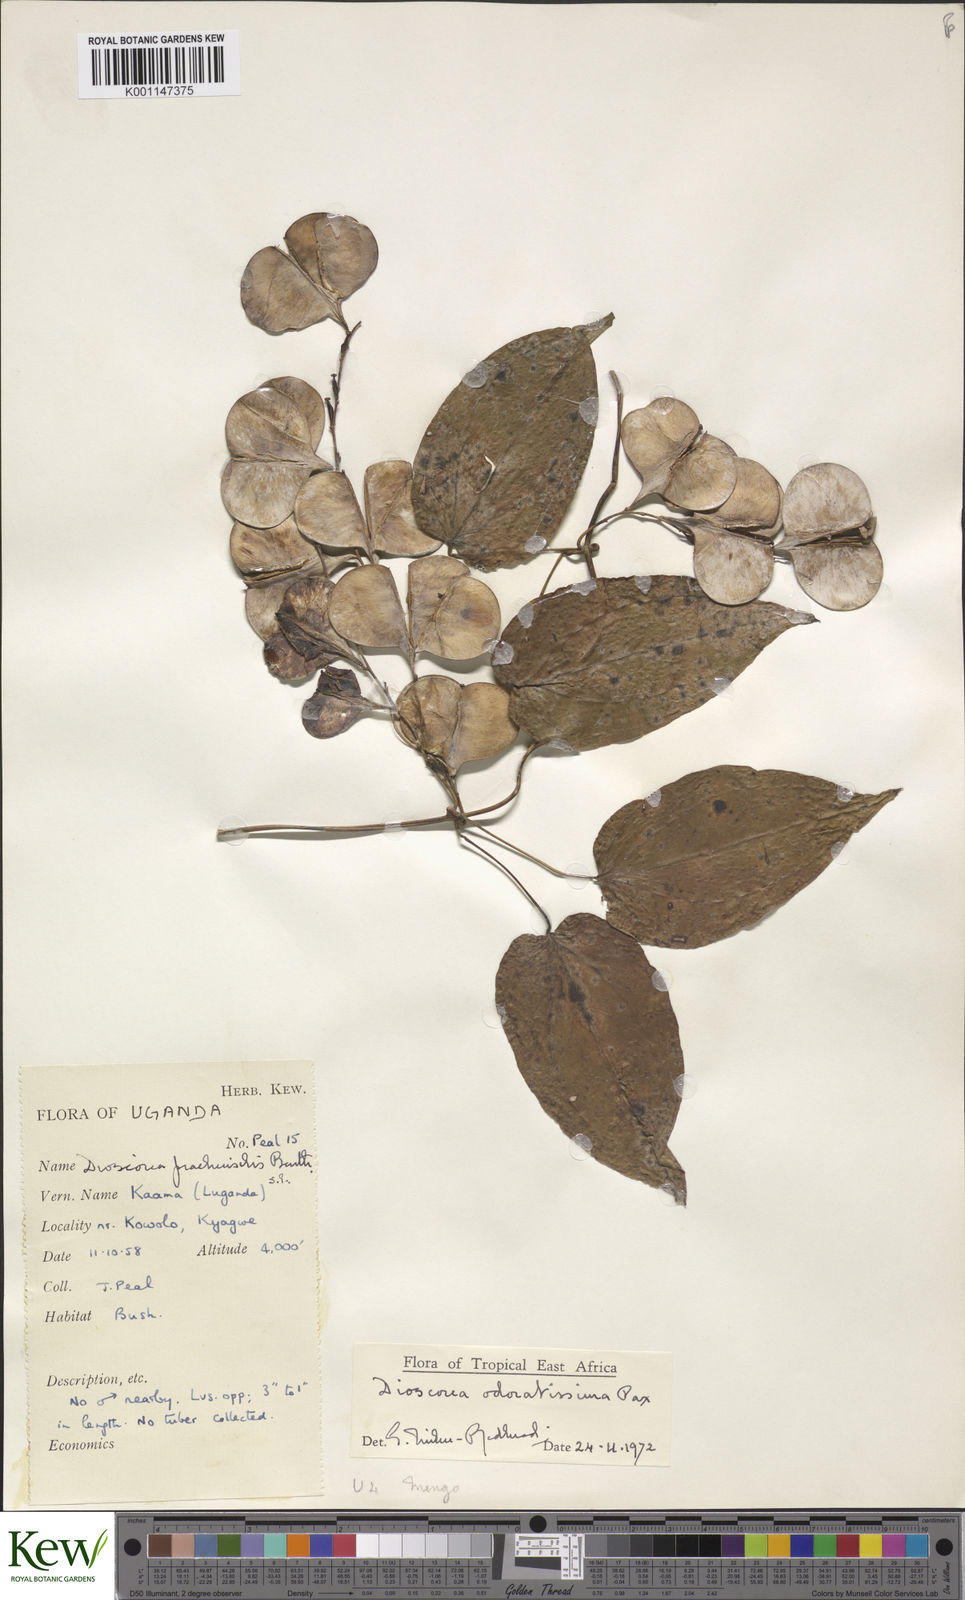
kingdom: Plantae
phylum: Tracheophyta
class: Liliopsida
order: Dioscoreales
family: Dioscoreaceae
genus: Dioscorea
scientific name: Dioscorea praehensilis
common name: Bush yam
